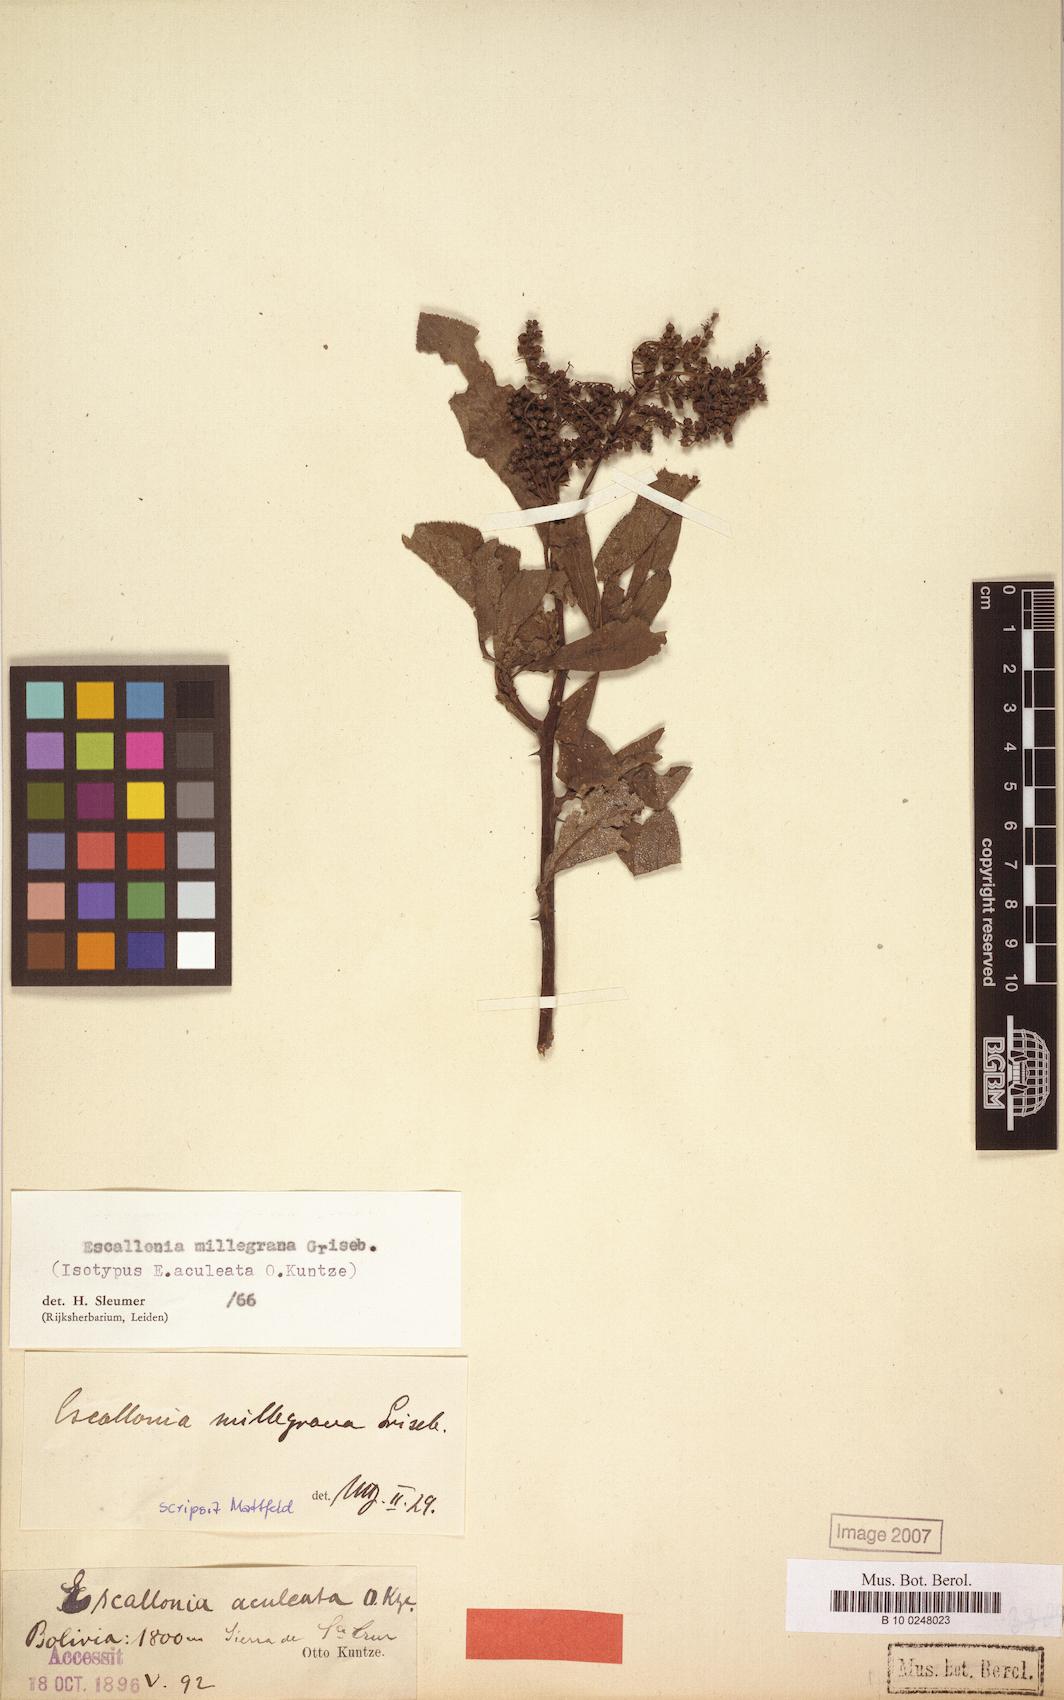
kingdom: Plantae
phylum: Tracheophyta
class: Magnoliopsida
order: Escalloniales
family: Escalloniaceae
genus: Escallonia
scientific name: Escallonia millegrana
